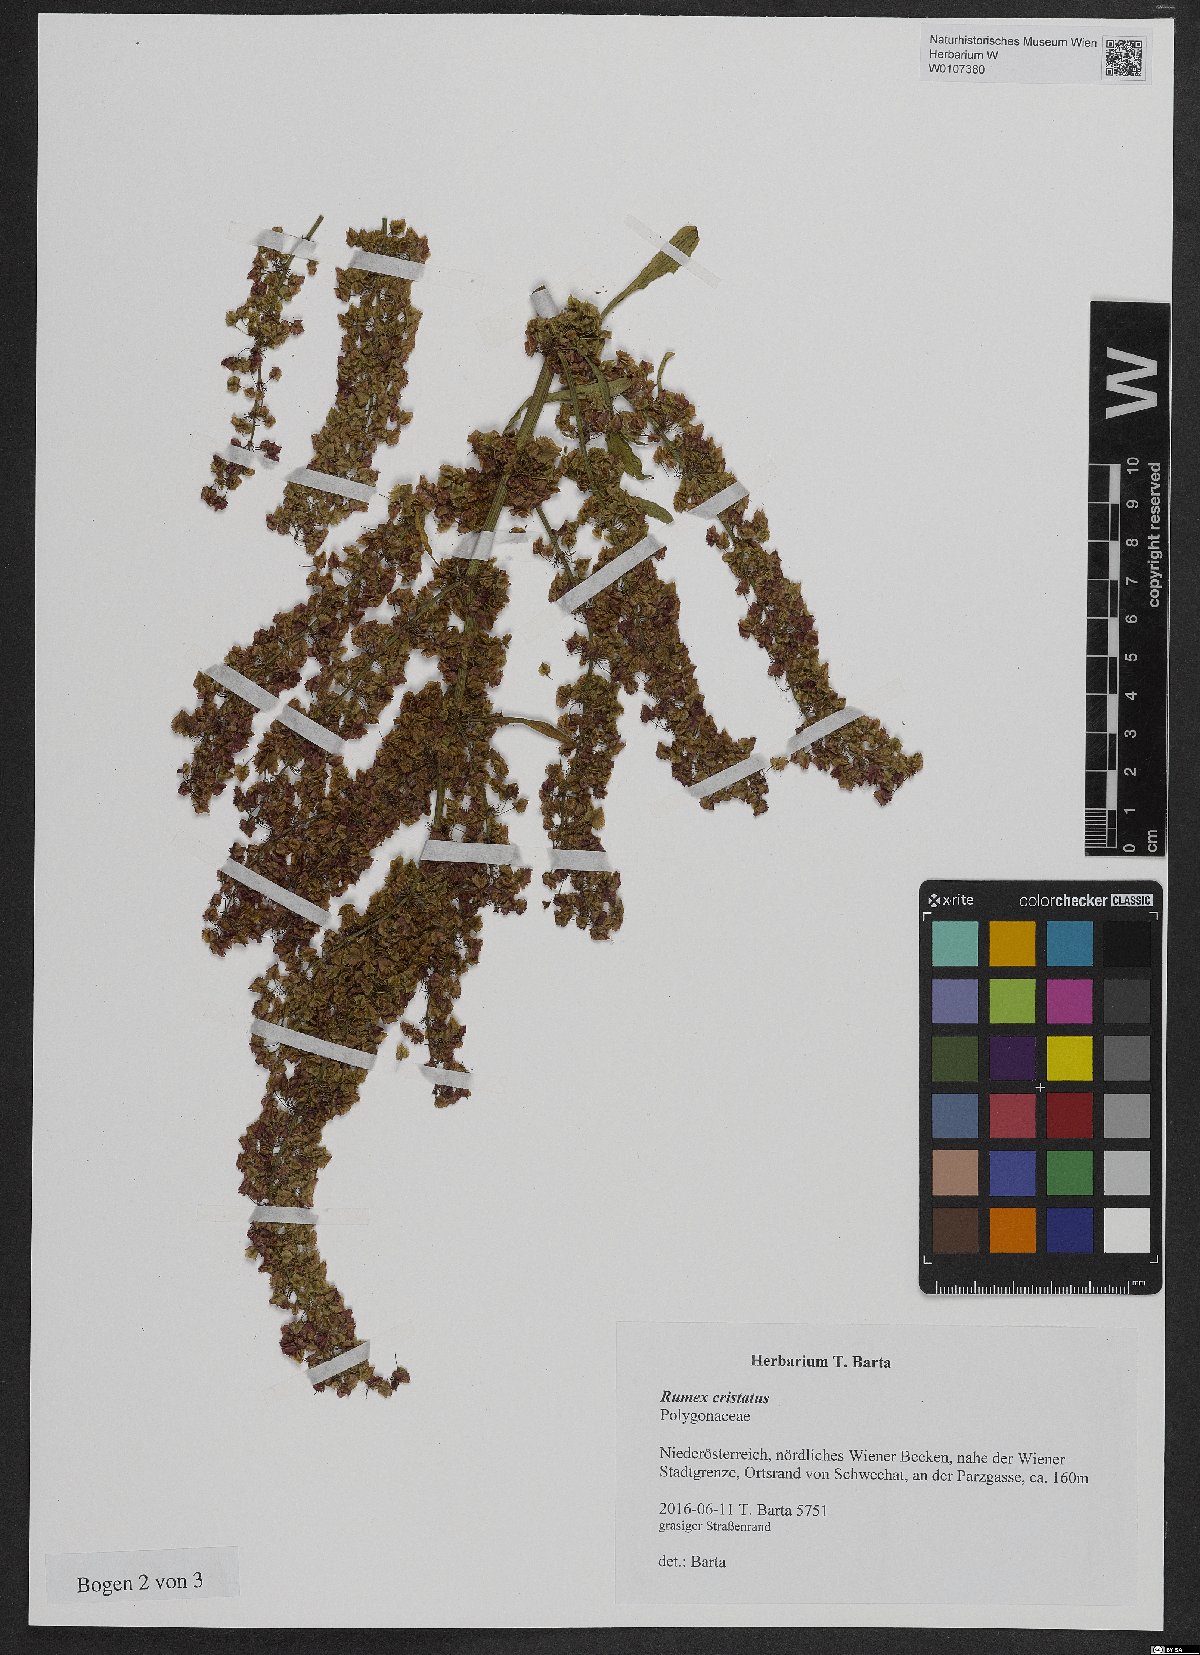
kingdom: Plantae
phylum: Tracheophyta
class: Magnoliopsida
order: Caryophyllales
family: Polygonaceae
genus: Rumex
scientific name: Rumex cristatus
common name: Greek dock
